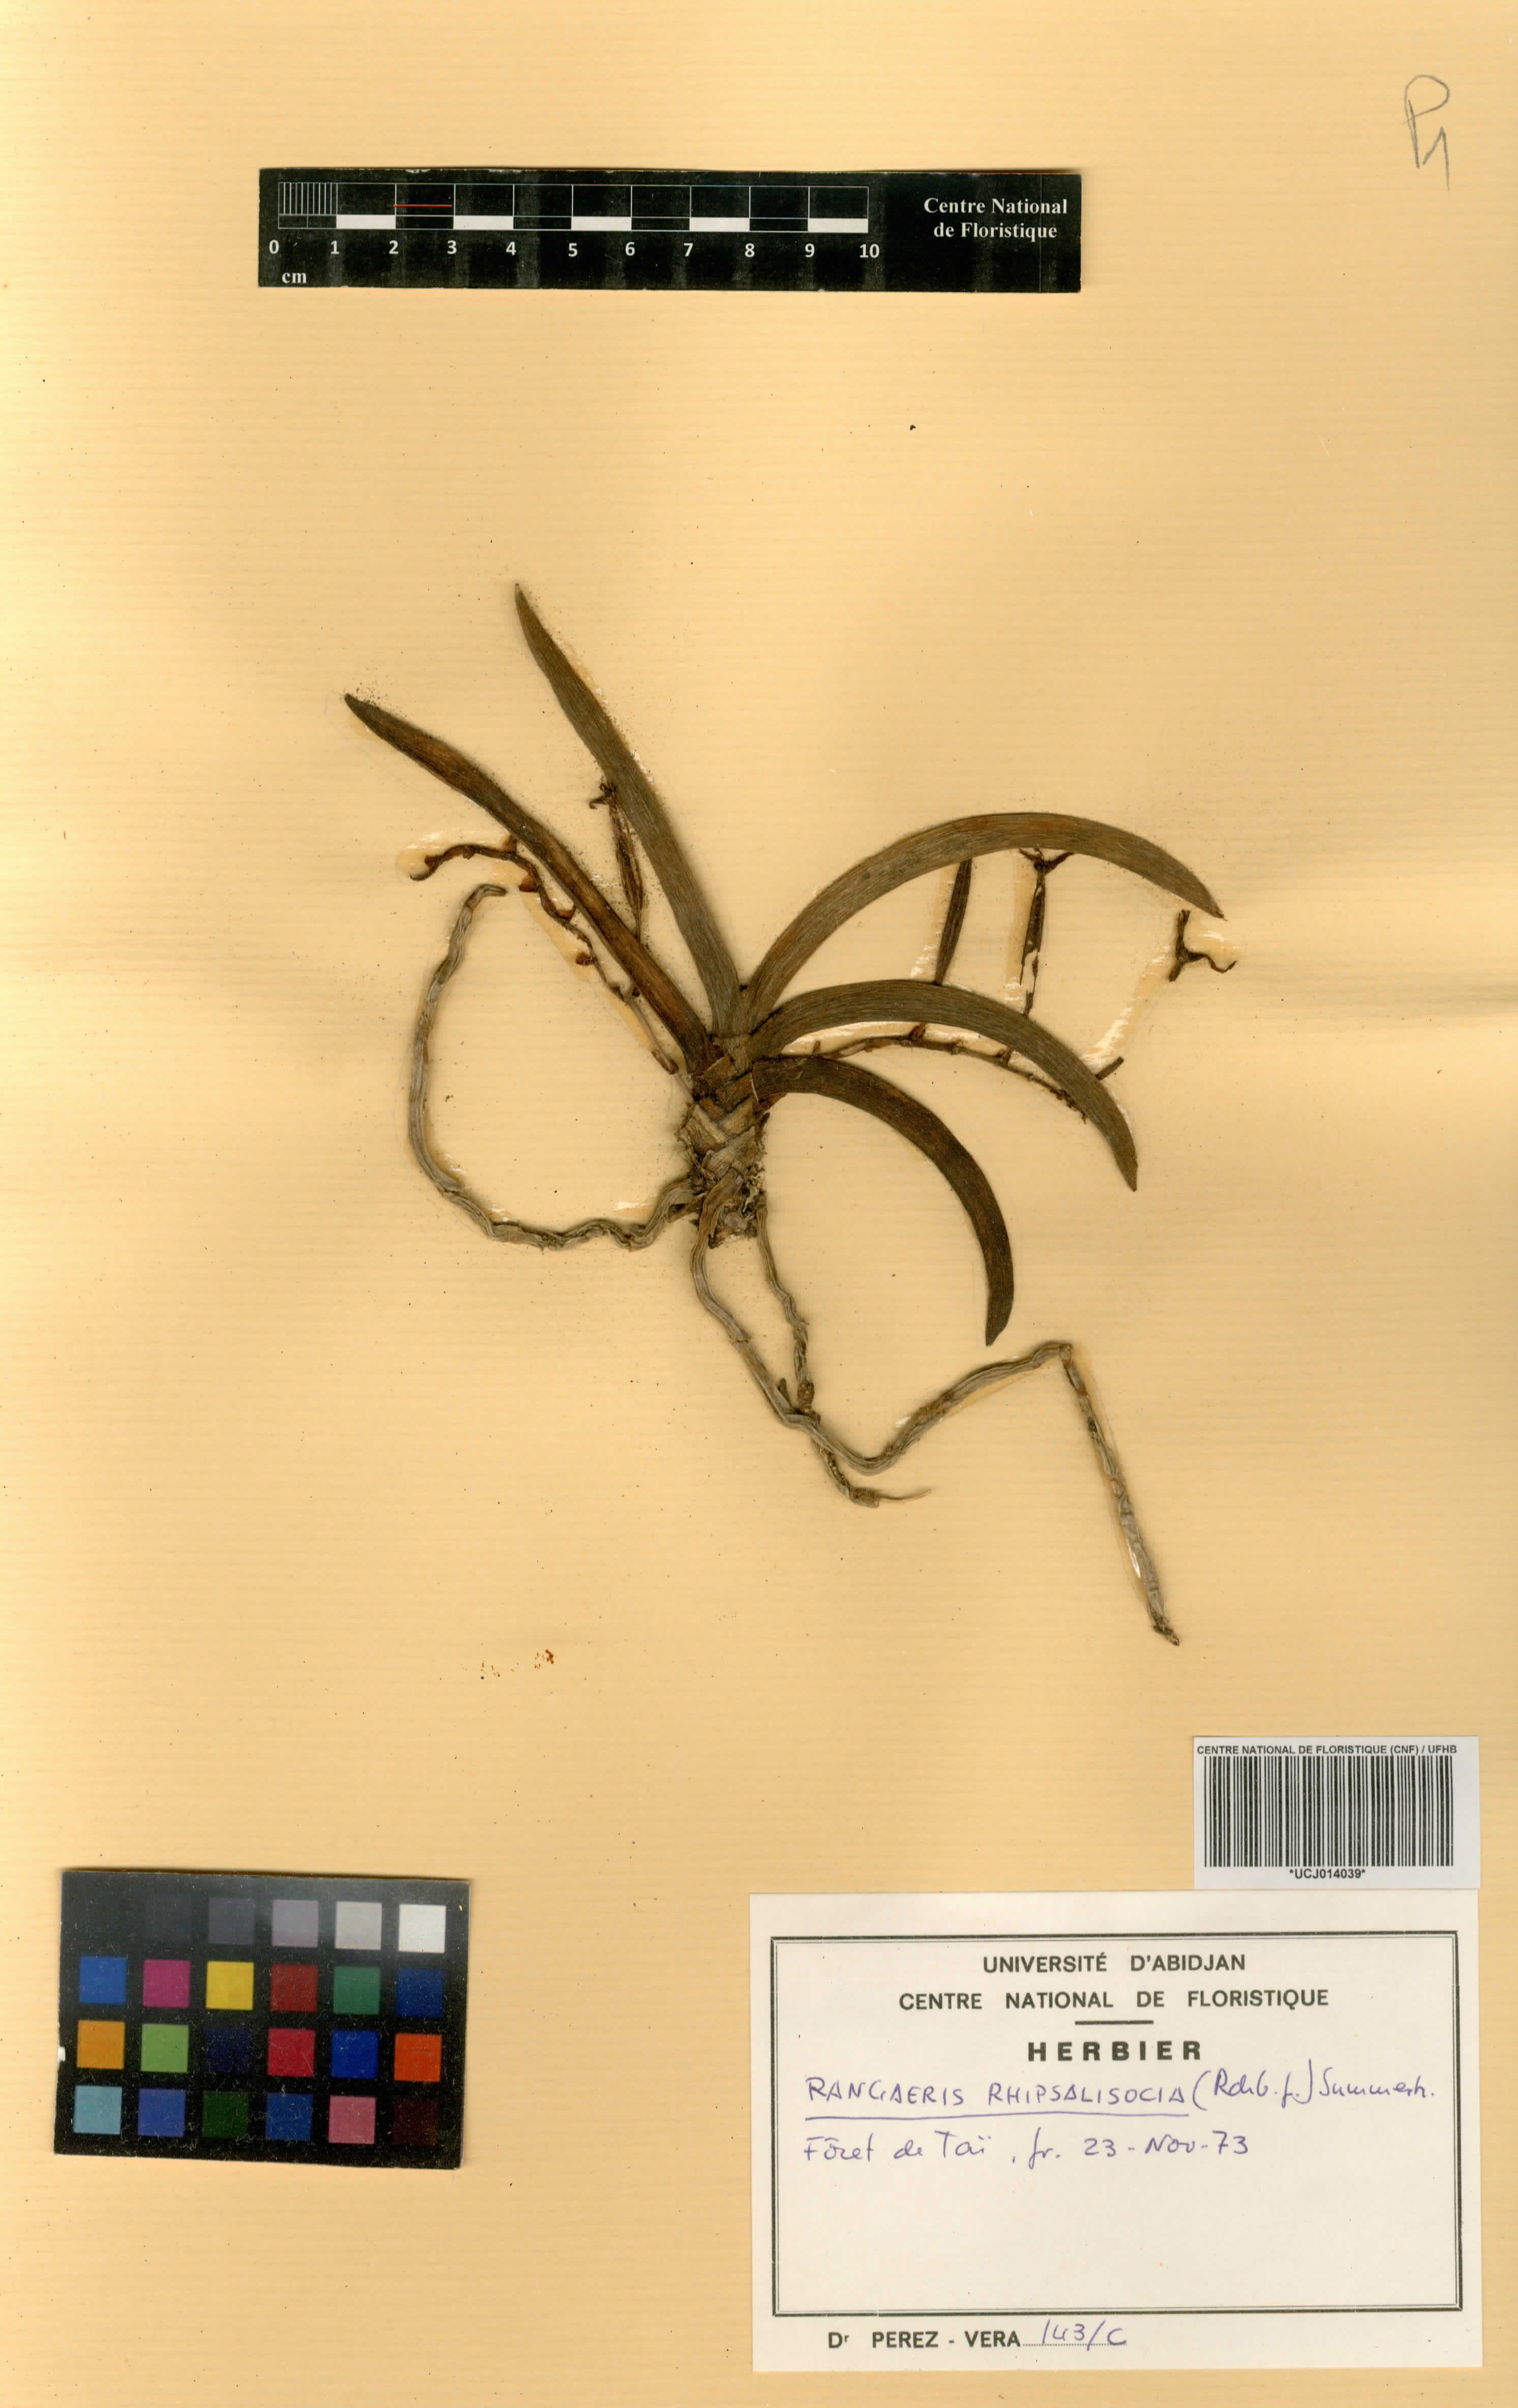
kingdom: Plantae
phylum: Tracheophyta
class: Liliopsida
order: Asparagales
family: Orchidaceae
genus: Podangis
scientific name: Podangis rhipsalisocia
